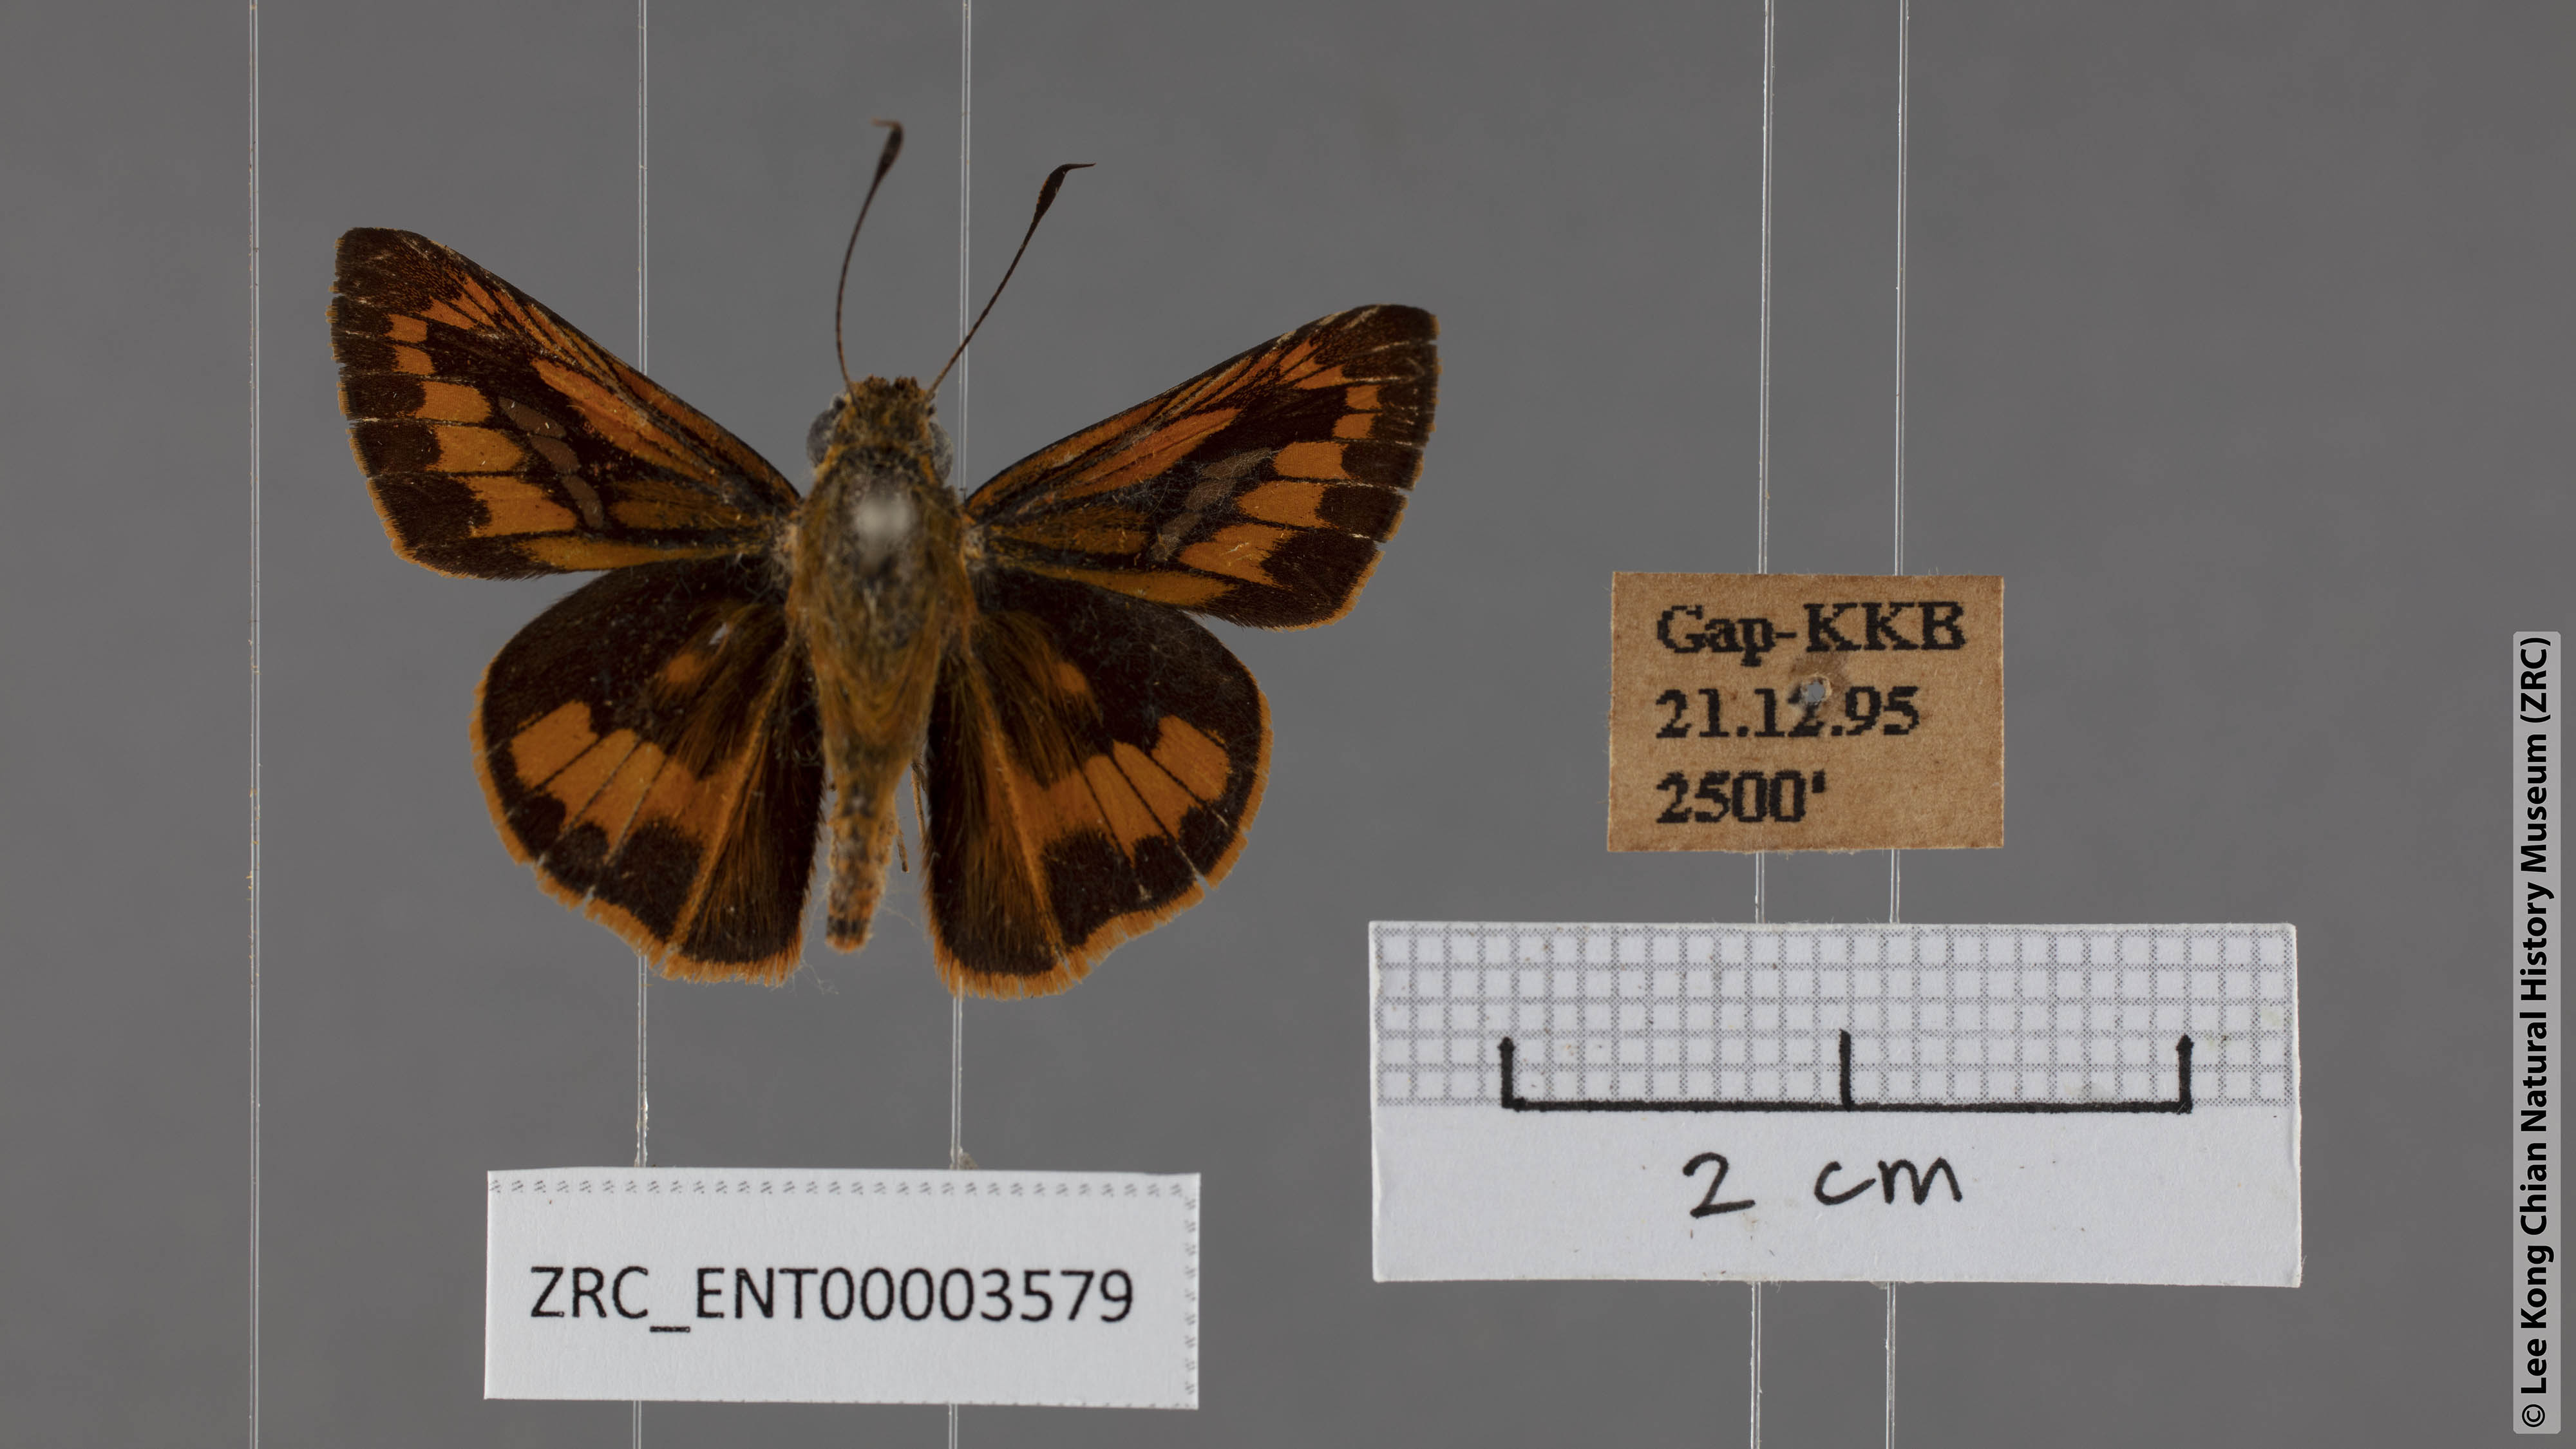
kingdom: Animalia
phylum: Arthropoda
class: Insecta
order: Lepidoptera
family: Hesperiidae
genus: Telicota
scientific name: Telicota besta
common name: Hainan palm dart
